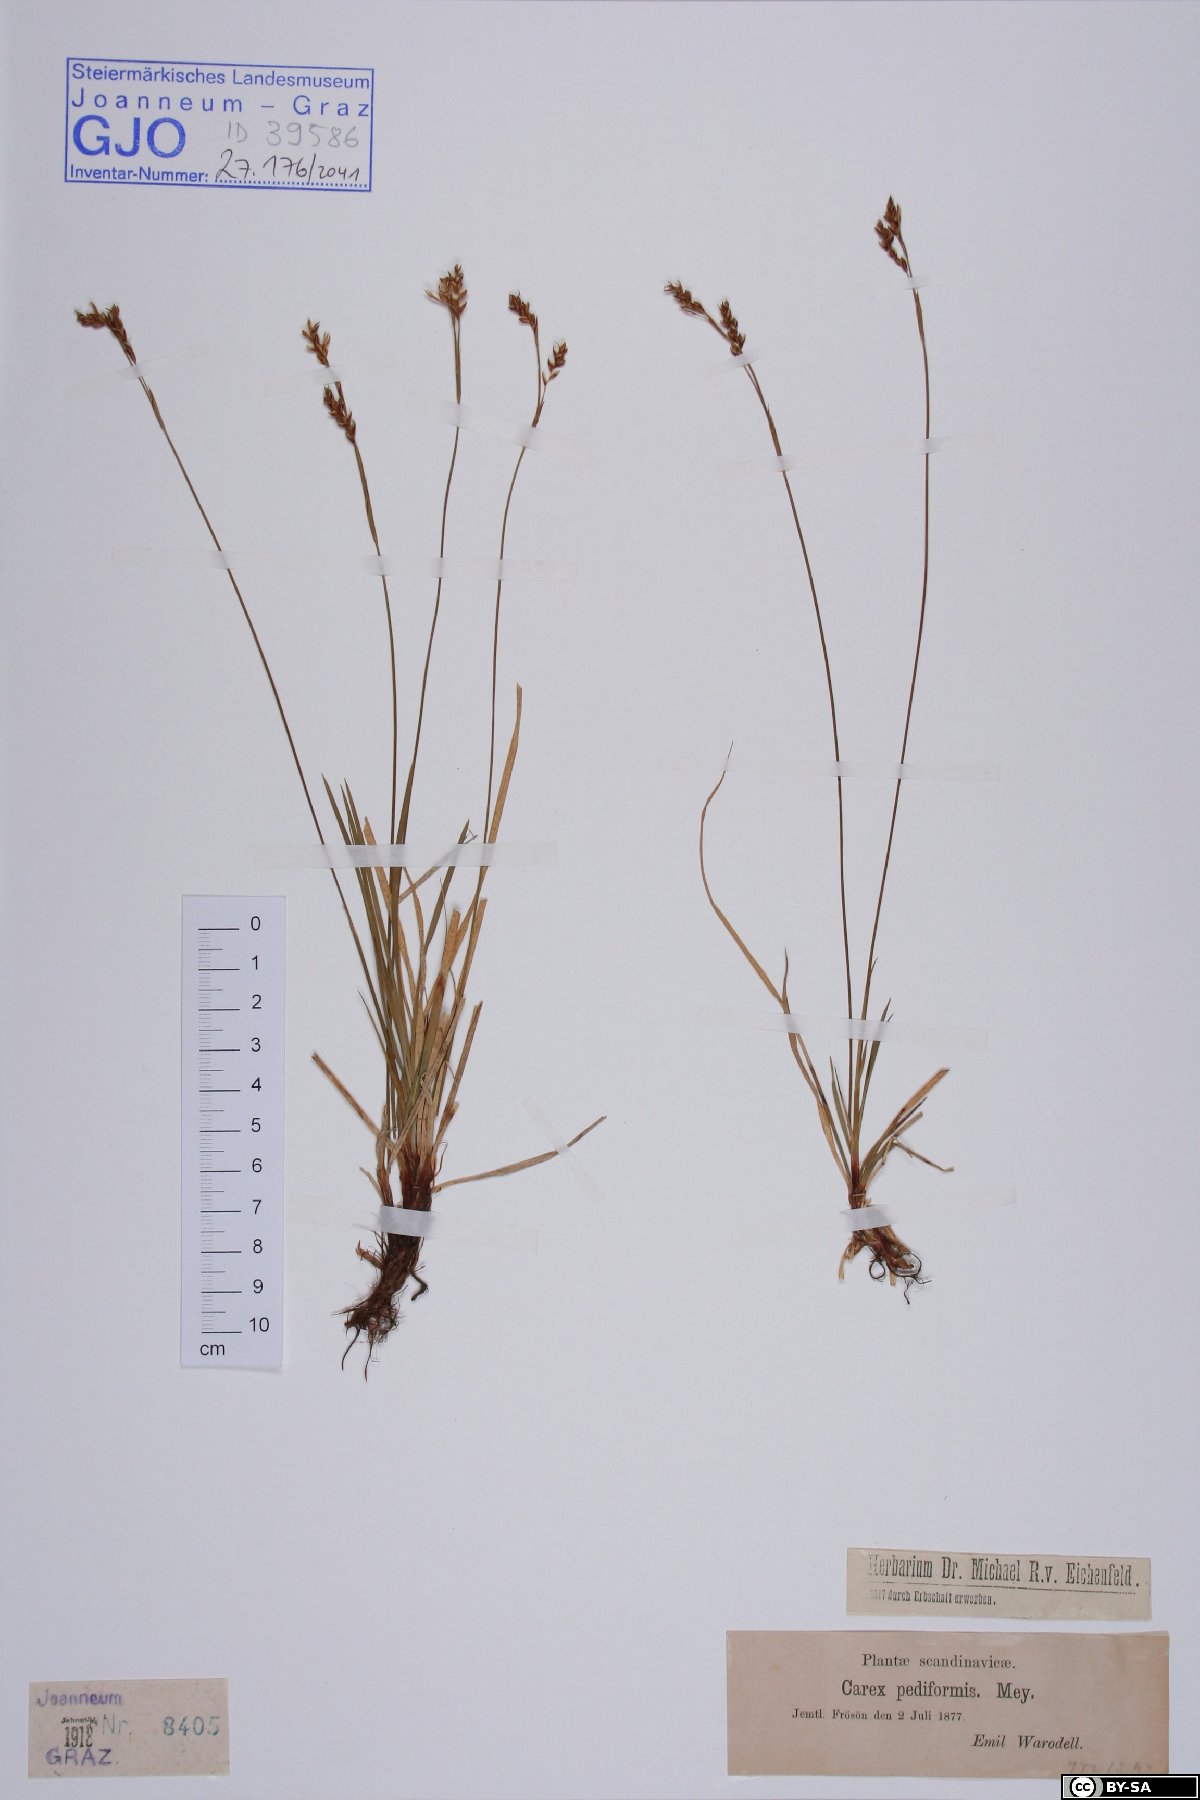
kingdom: Plantae
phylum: Tracheophyta
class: Liliopsida
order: Poales
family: Cyperaceae
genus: Carex
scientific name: Carex pediformis
